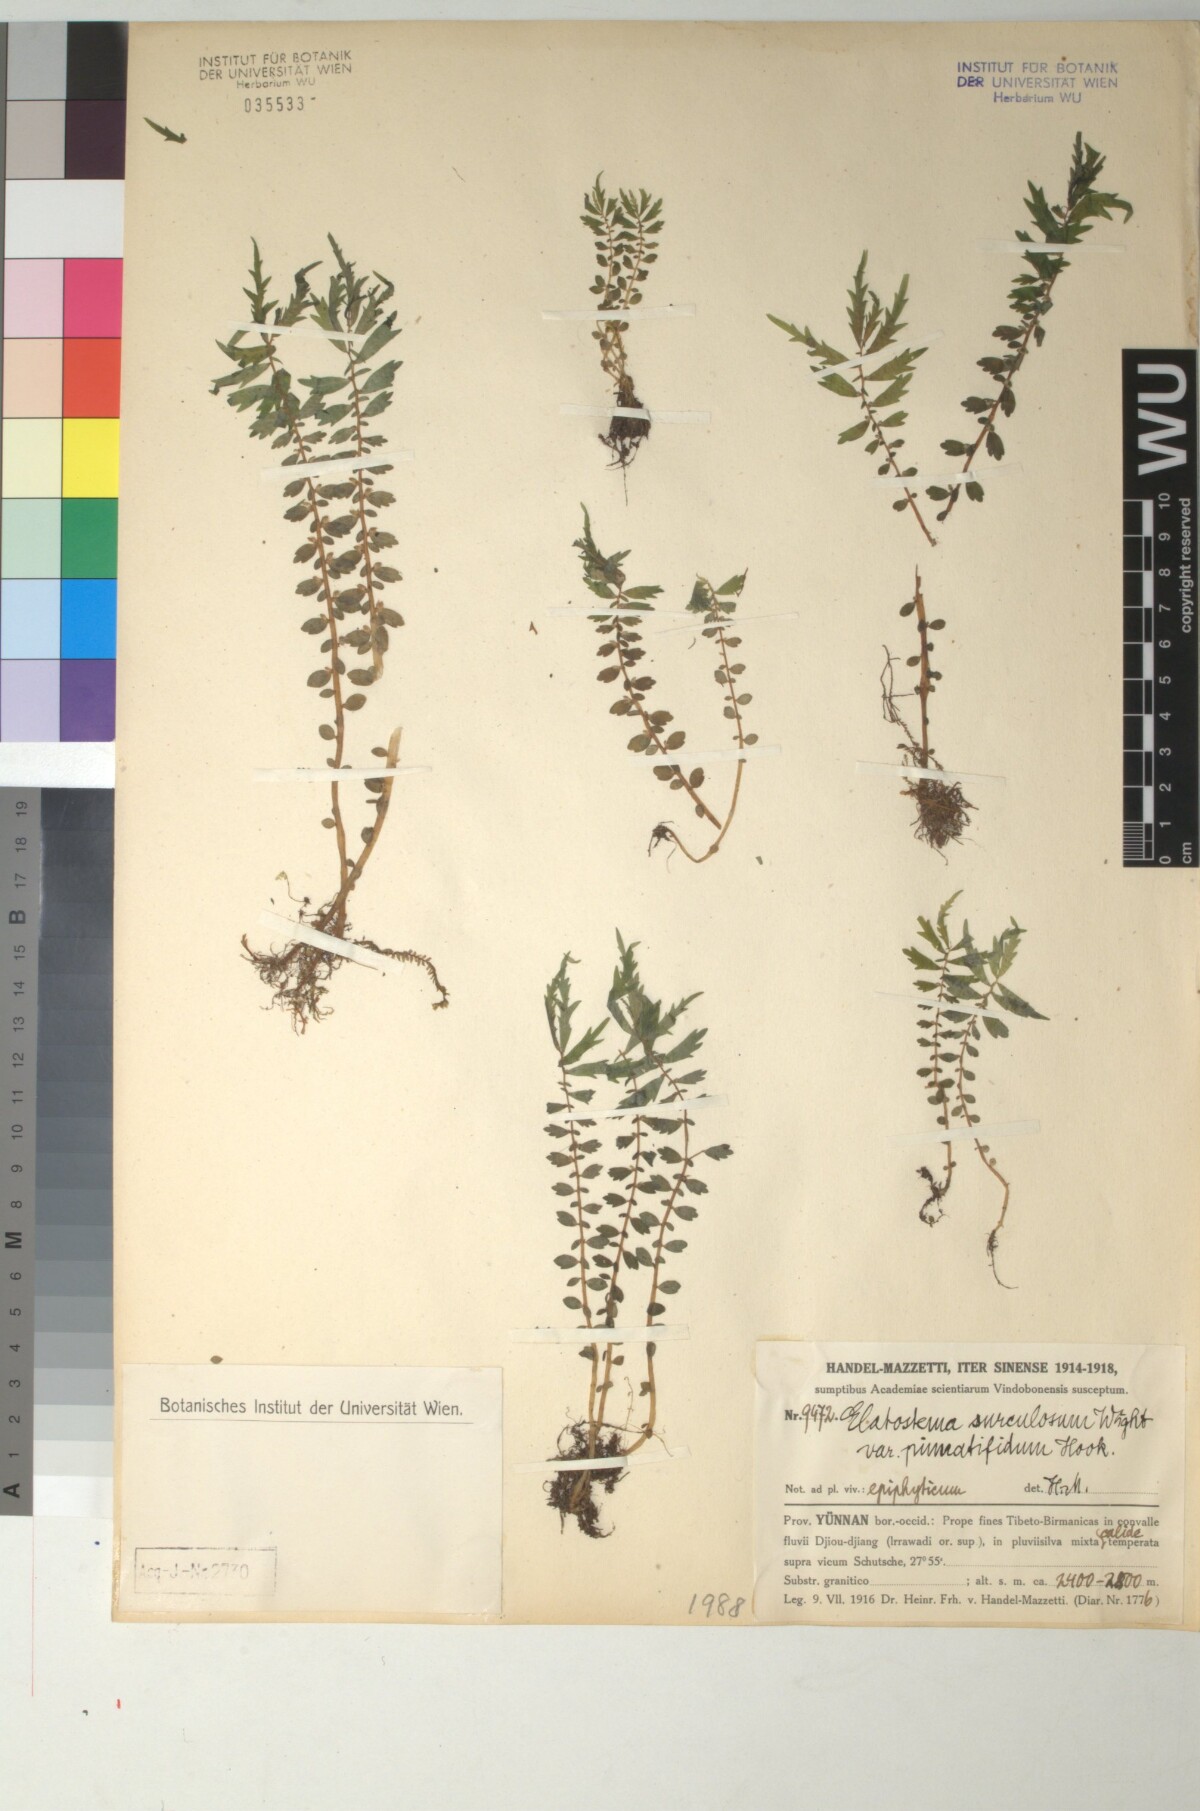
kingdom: Plantae
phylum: Tracheophyta
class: Magnoliopsida
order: Rosales
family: Urticaceae
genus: Elatostema
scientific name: Elatostema monandrum
